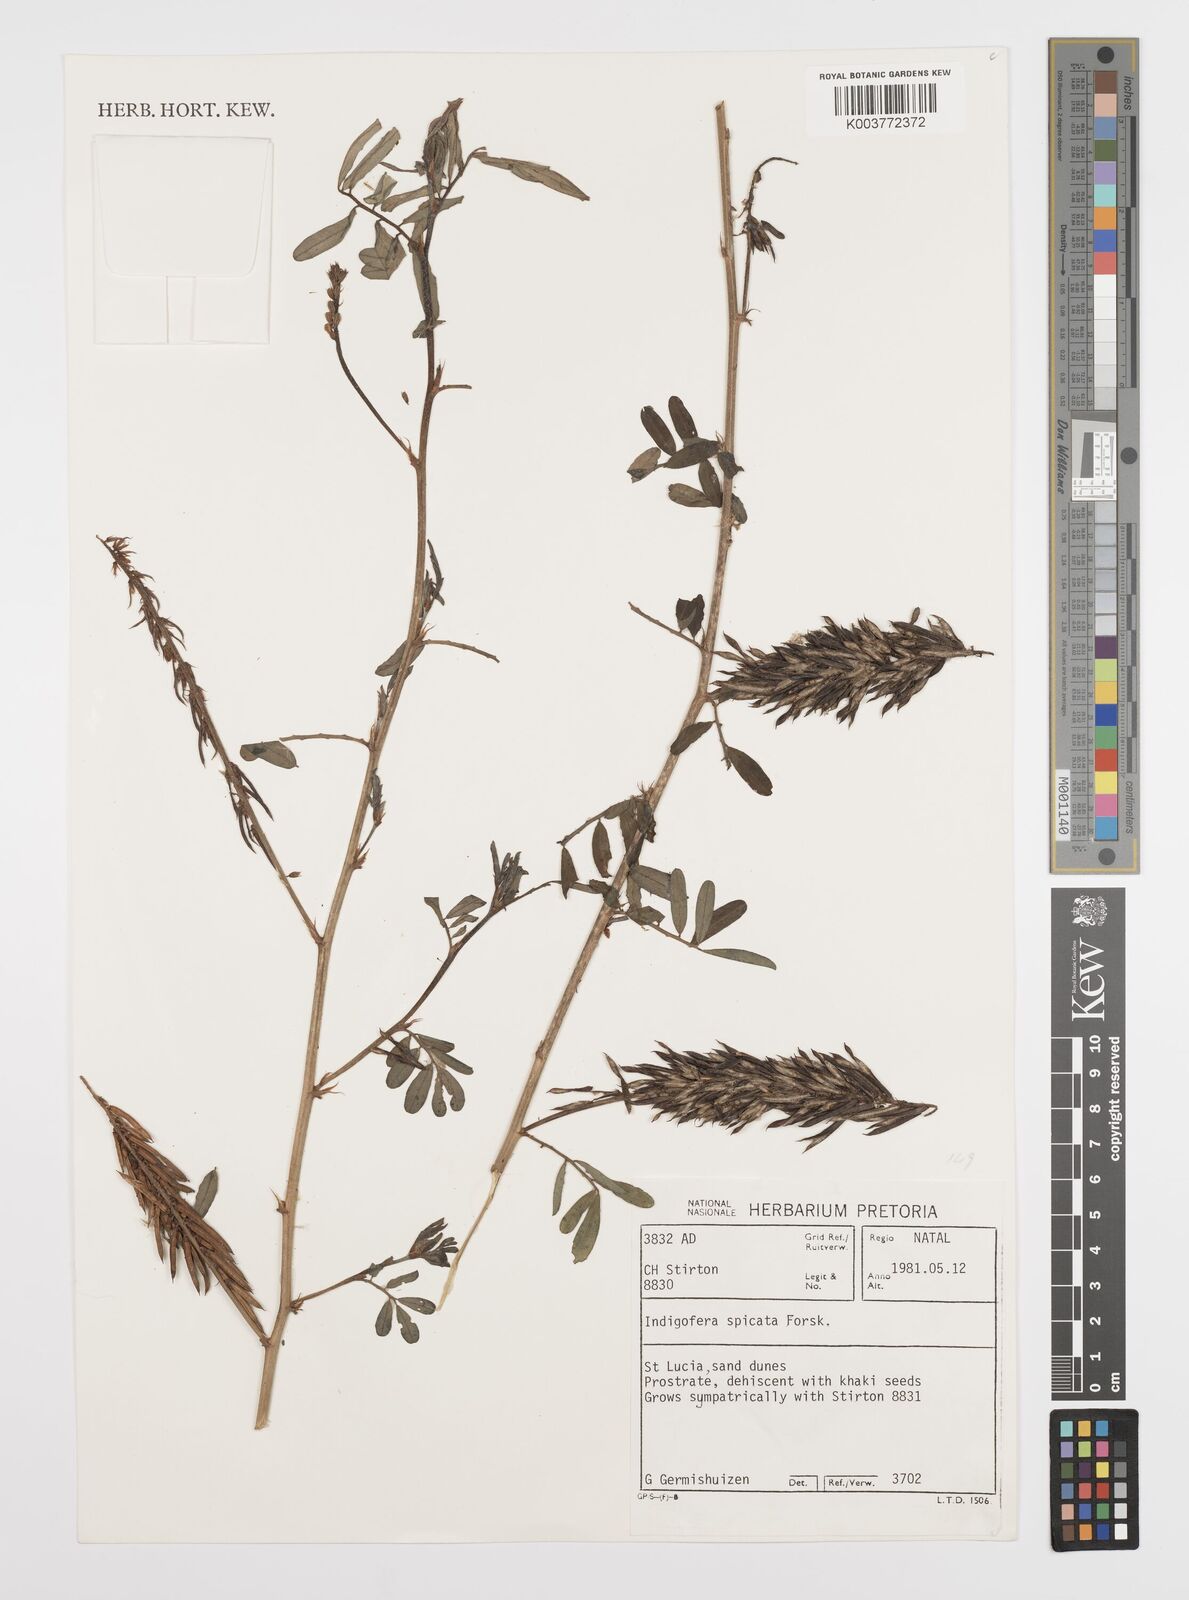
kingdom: Plantae
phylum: Tracheophyta
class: Magnoliopsida
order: Fabales
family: Fabaceae
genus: Indigofera
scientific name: Indigofera hendecaphylla
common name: Trailing indigo
